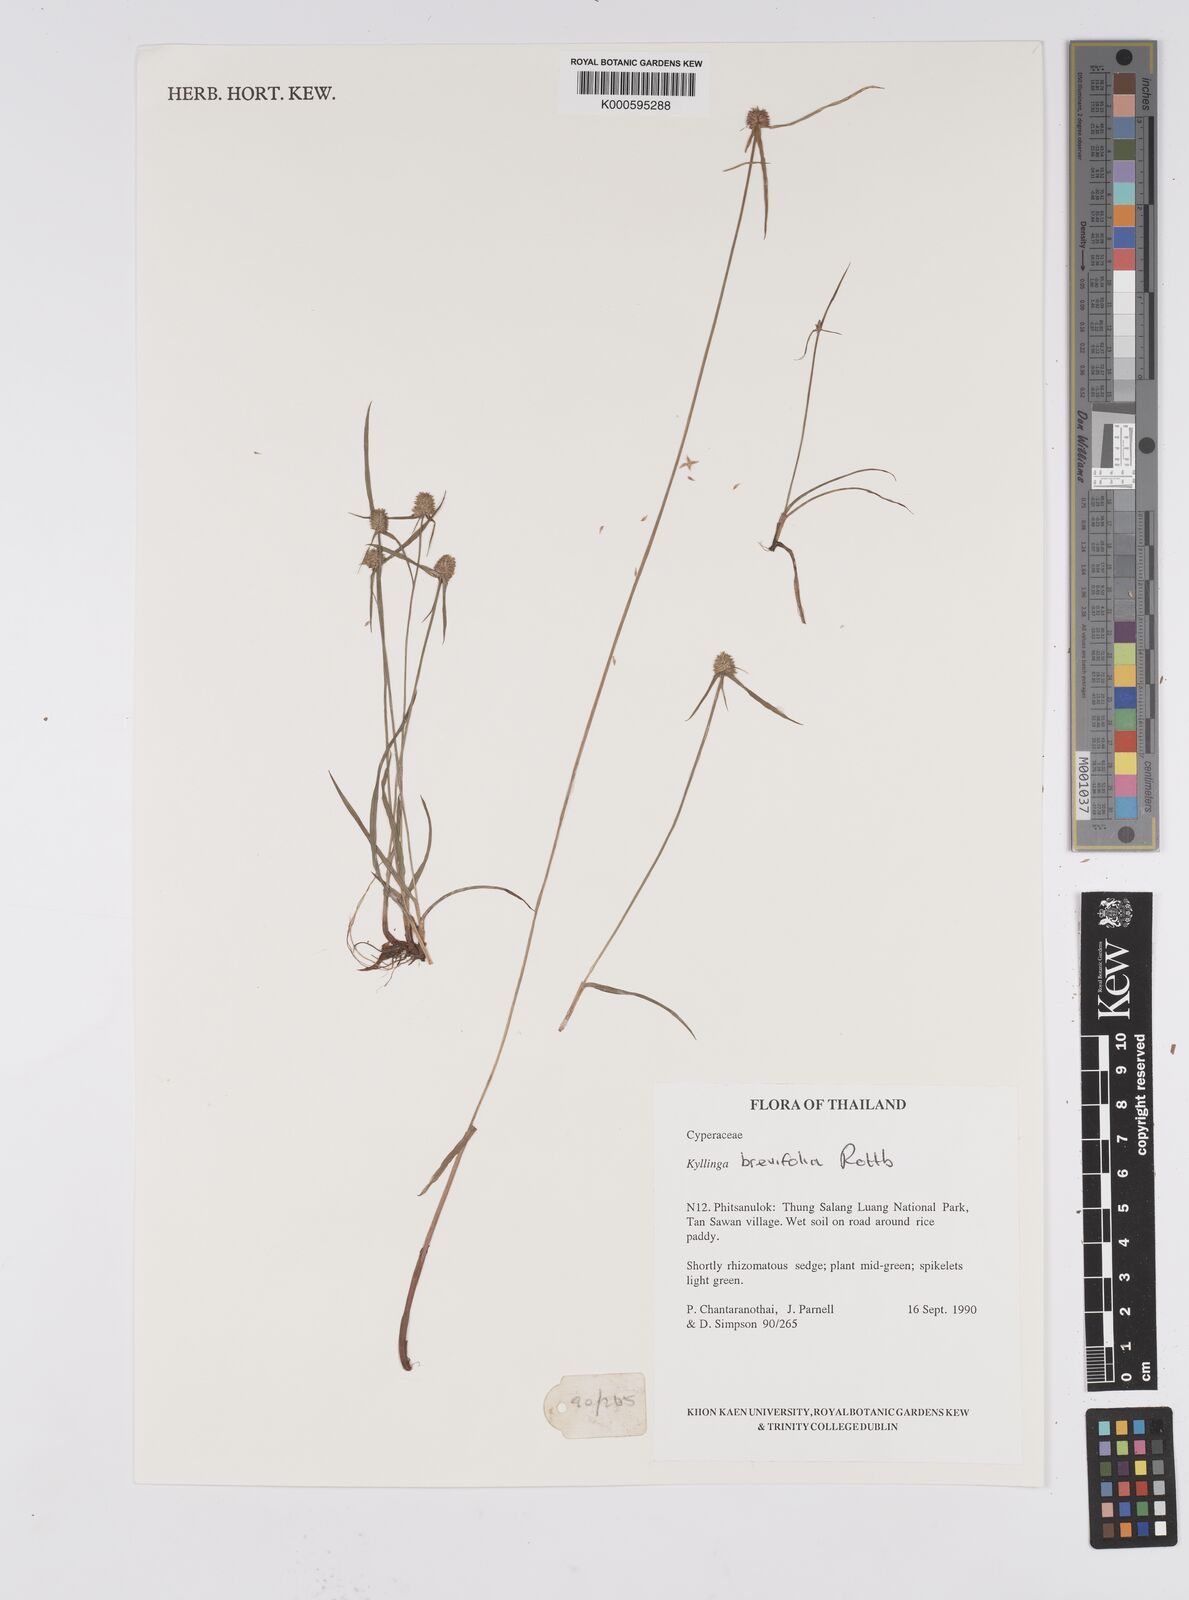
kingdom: Plantae
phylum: Tracheophyta
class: Liliopsida
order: Poales
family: Cyperaceae
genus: Cyperus
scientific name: Cyperus brevifolius
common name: Globe kyllinga
